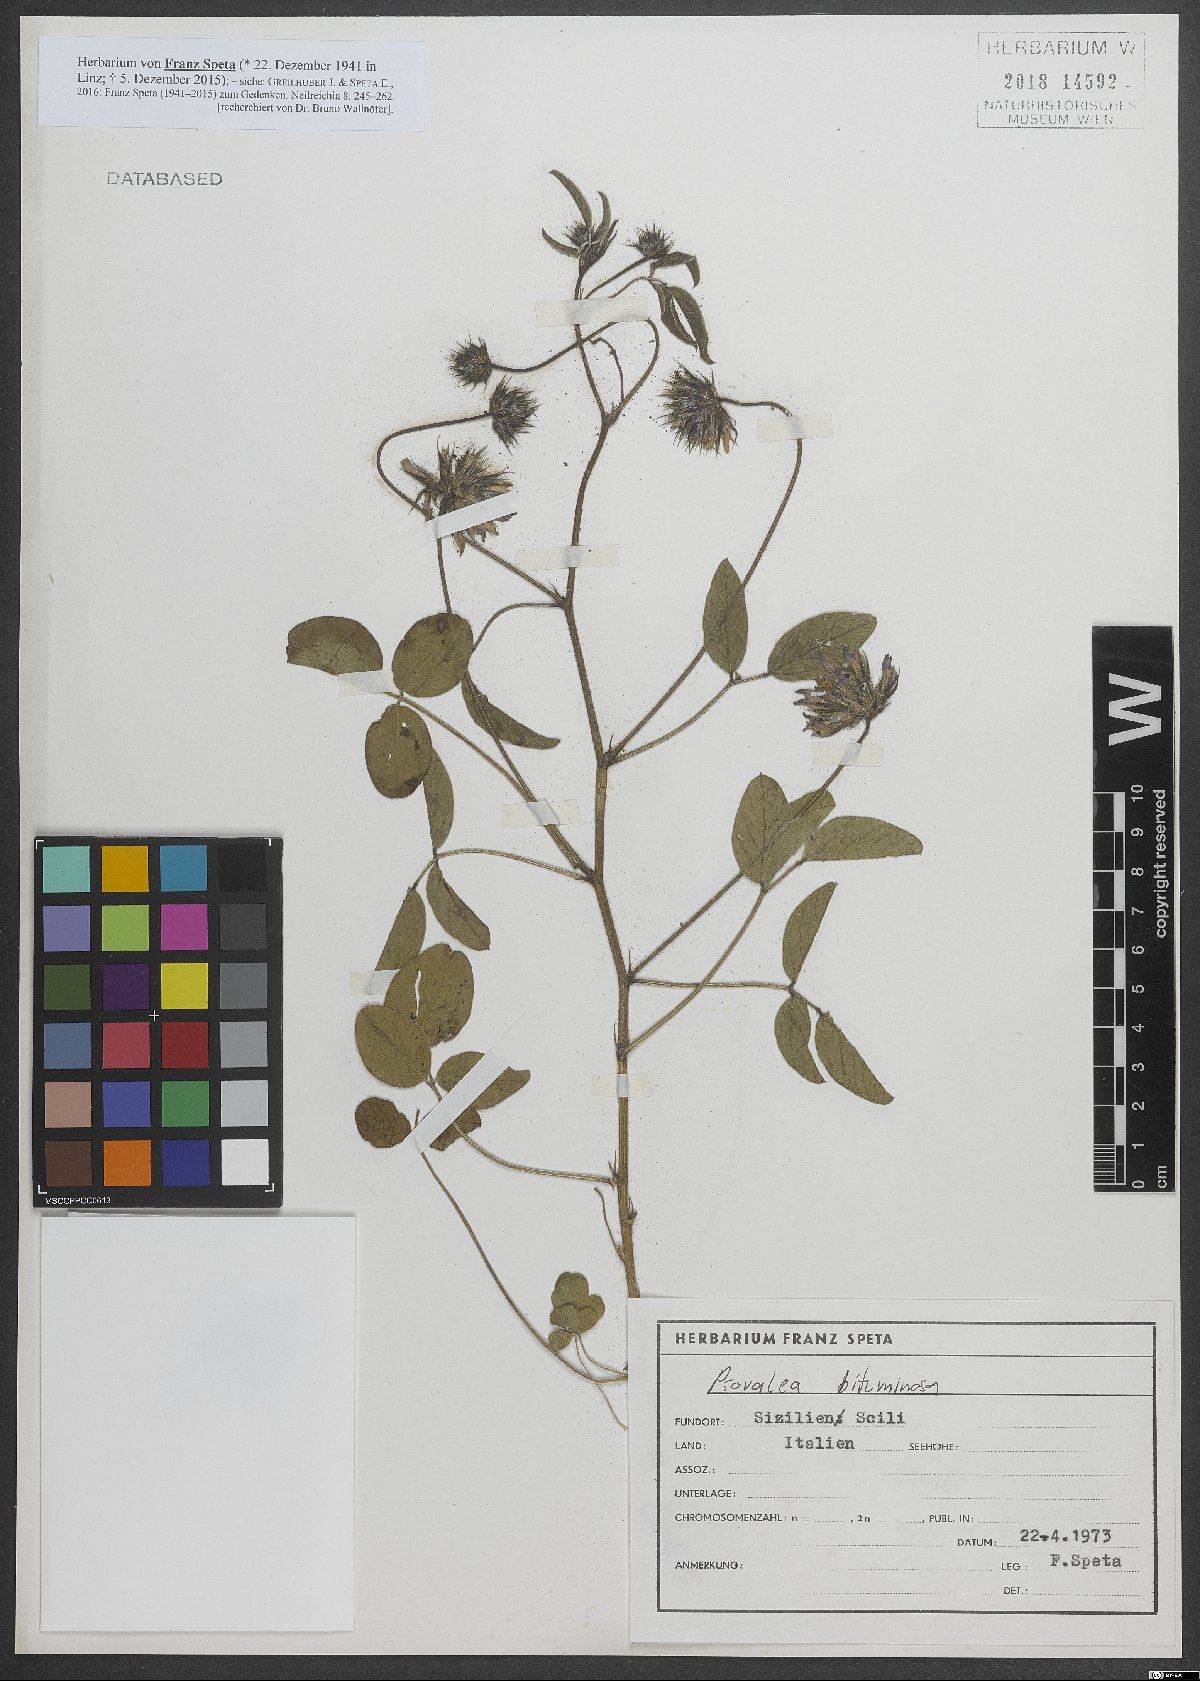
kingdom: Plantae
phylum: Tracheophyta
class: Magnoliopsida
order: Fabales
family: Fabaceae
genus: Bituminaria
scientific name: Bituminaria bituminosa
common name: Arabian pea
